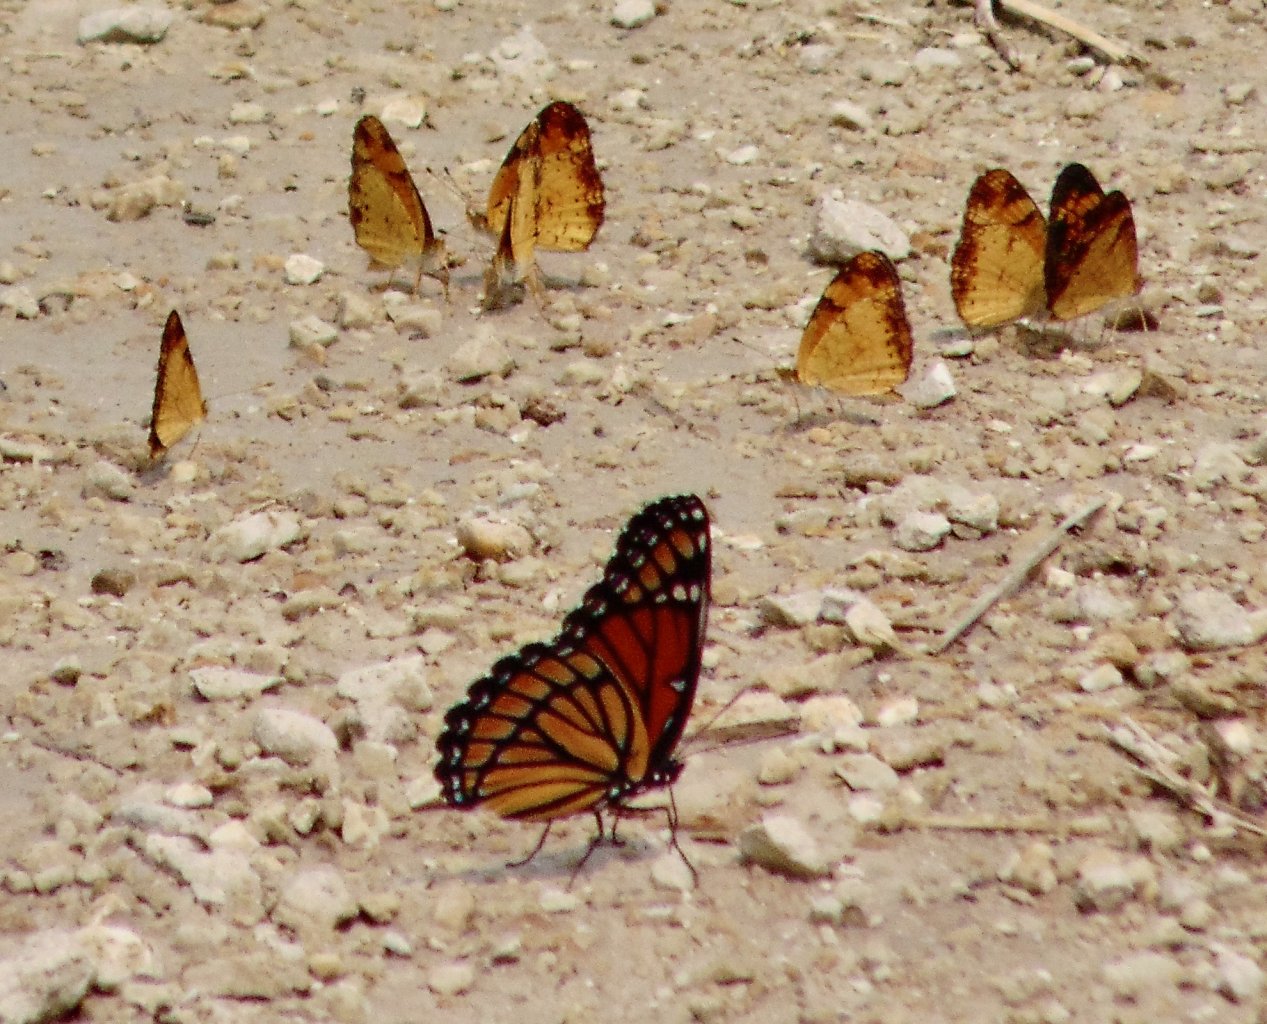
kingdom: Animalia
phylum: Arthropoda
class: Insecta
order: Lepidoptera
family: Nymphalidae
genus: Limenitis
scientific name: Limenitis archippus
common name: Viceroy
